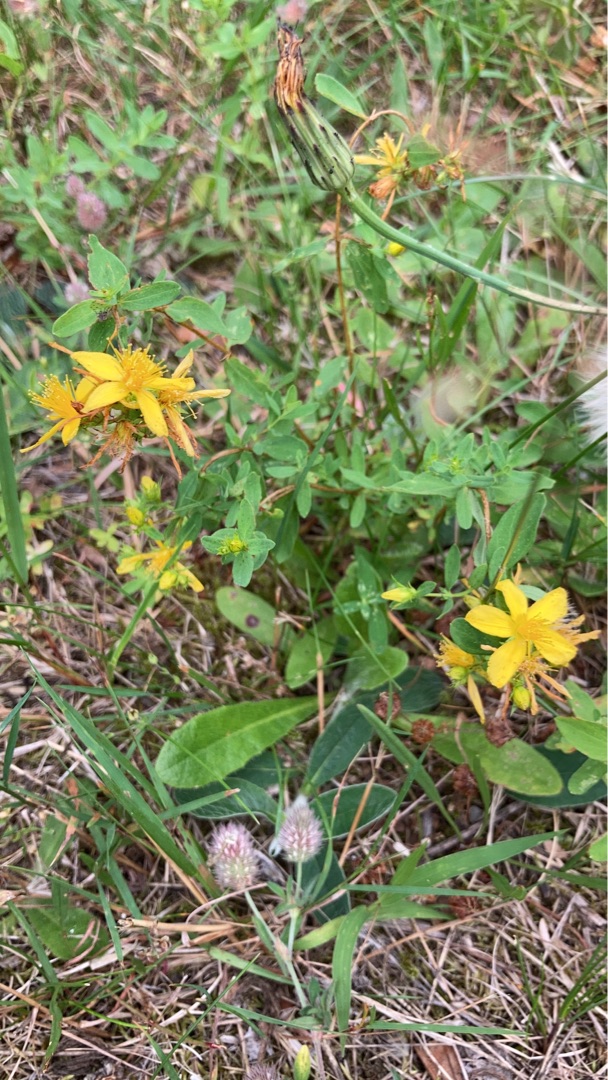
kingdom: Plantae
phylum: Tracheophyta
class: Magnoliopsida
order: Malpighiales
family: Hypericaceae
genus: Hypericum
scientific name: Hypericum perforatum
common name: Prikbladet perikon
